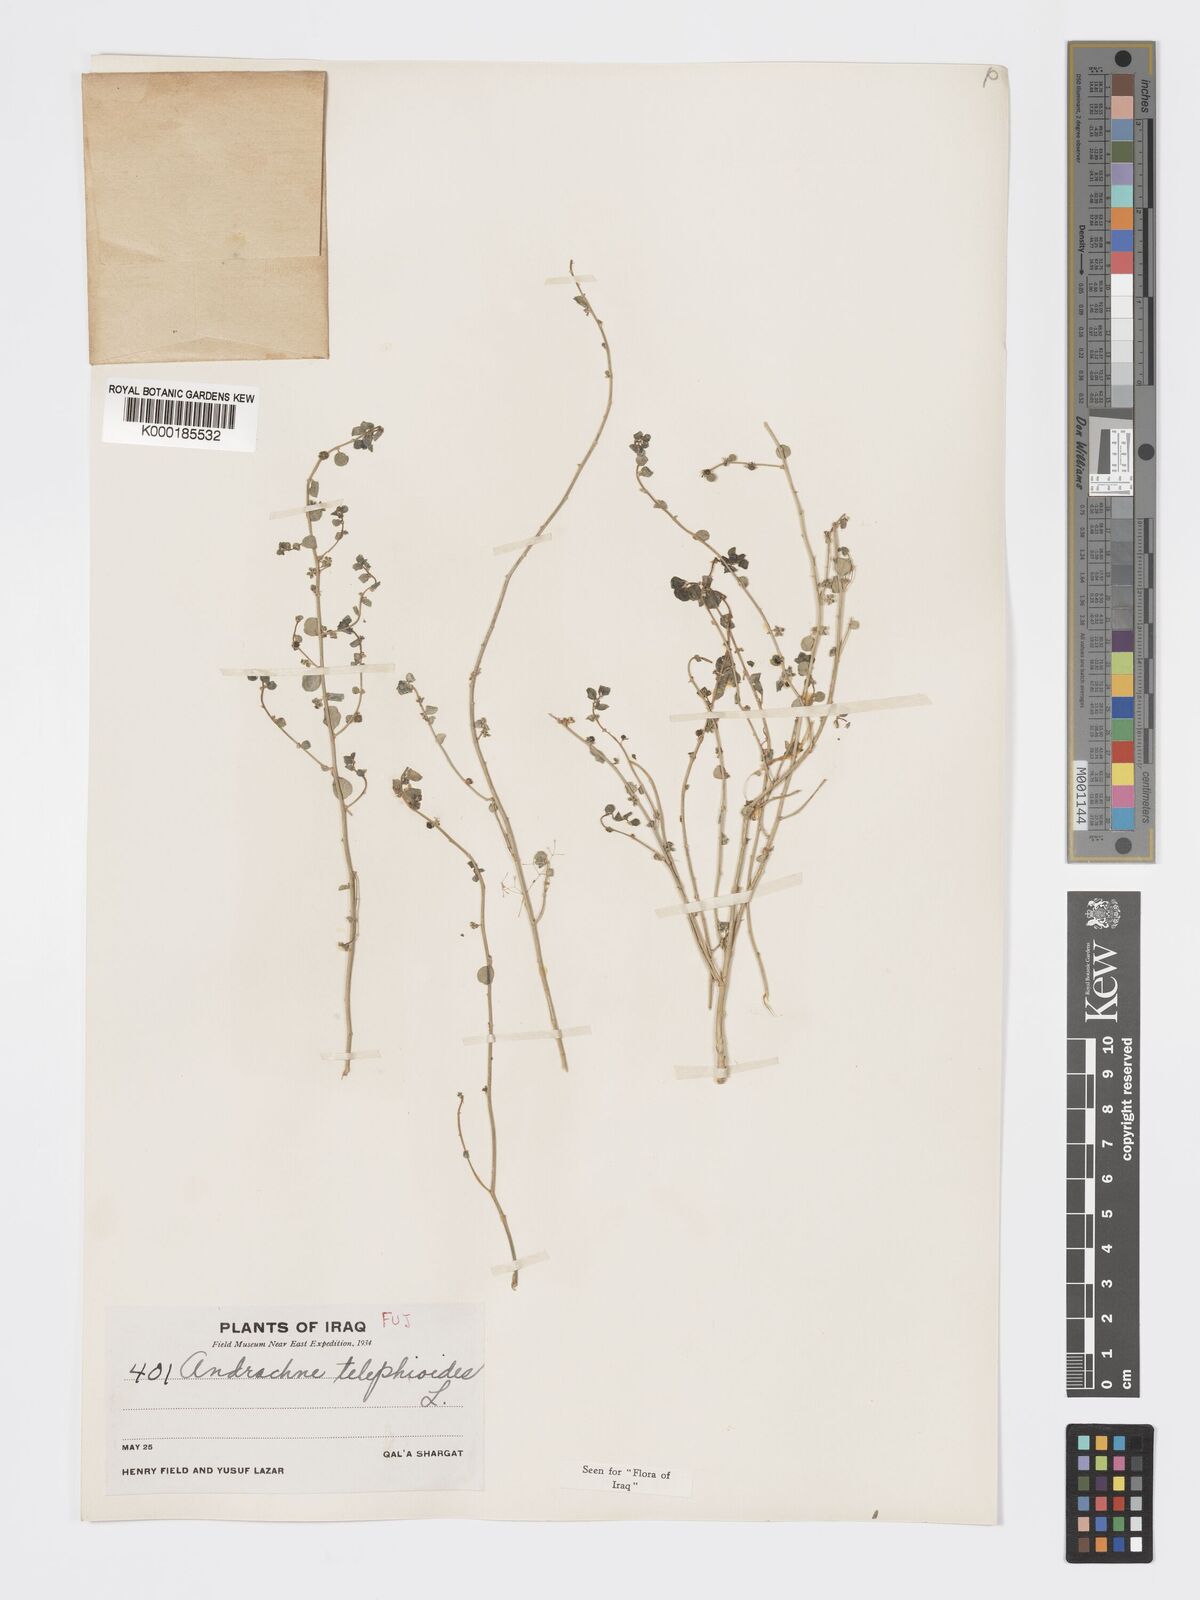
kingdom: Plantae
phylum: Tracheophyta
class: Magnoliopsida
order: Malpighiales
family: Phyllanthaceae
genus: Andrachne
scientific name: Andrachne telephioides
